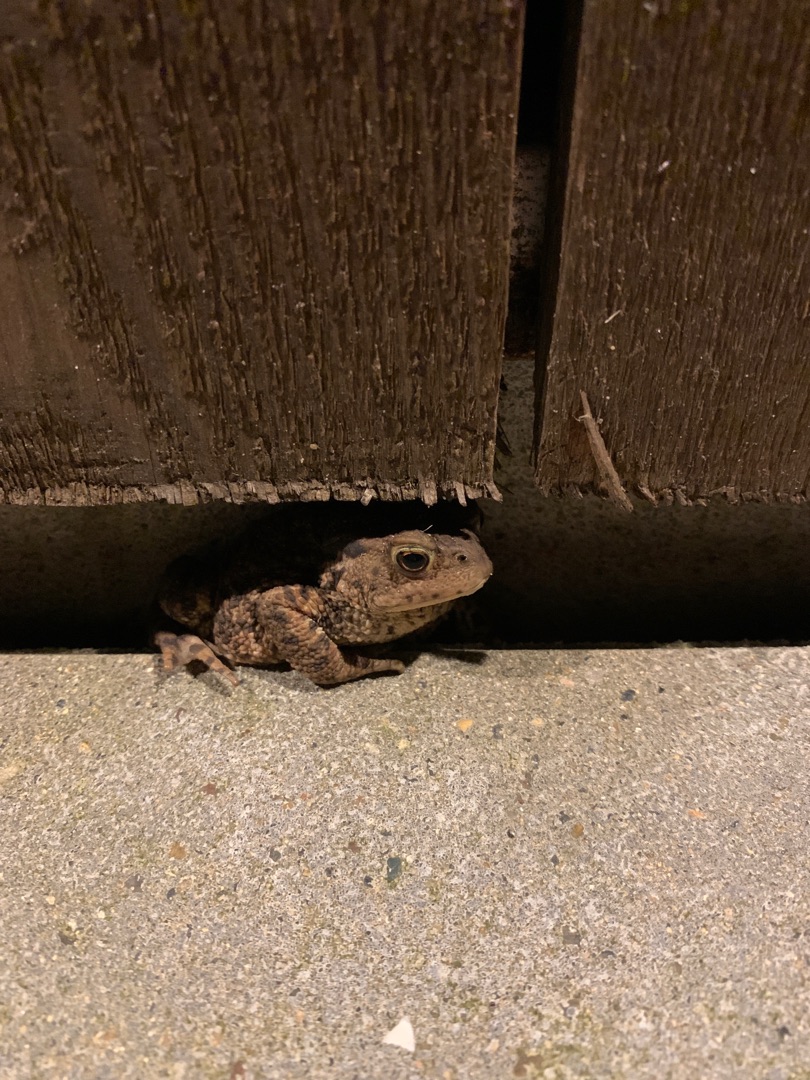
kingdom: Animalia
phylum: Chordata
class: Amphibia
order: Anura
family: Bufonidae
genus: Bufo
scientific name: Bufo bufo
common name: Skrubtudse
